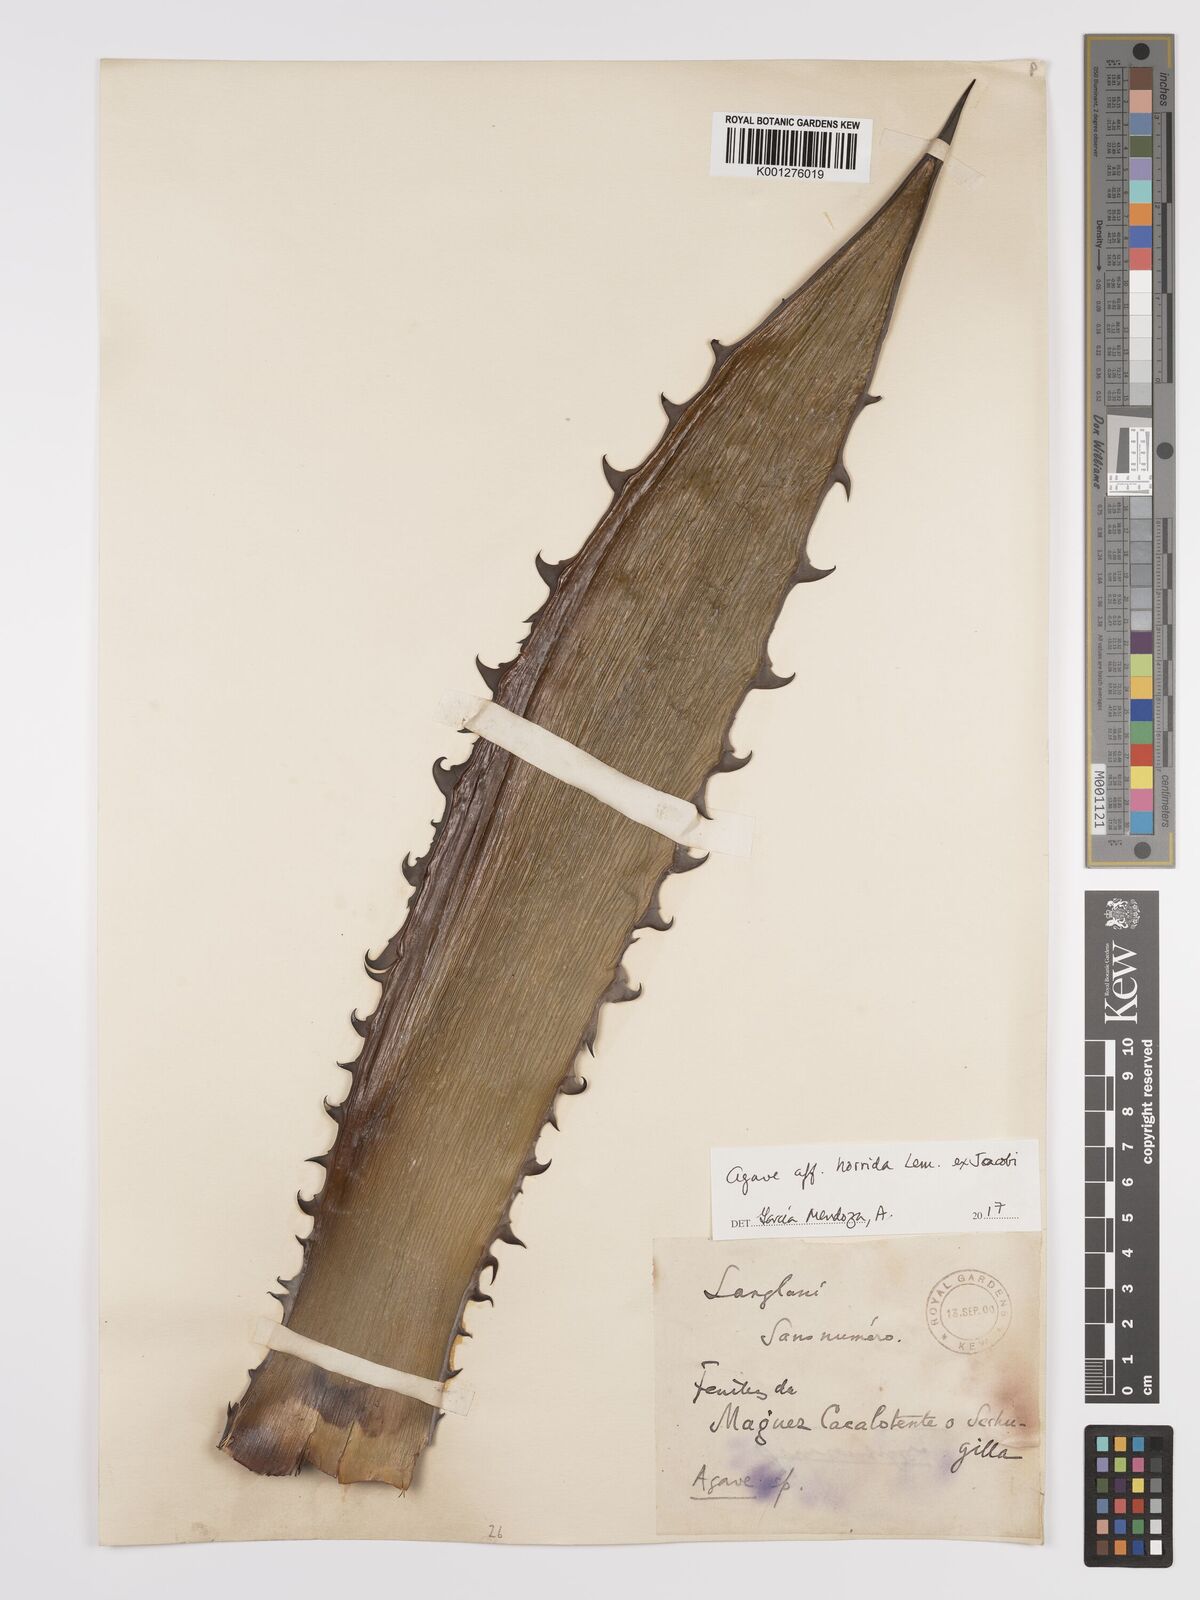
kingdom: Plantae
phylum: Tracheophyta
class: Liliopsida
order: Asparagales
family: Asparagaceae
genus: Agave
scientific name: Agave horrida
